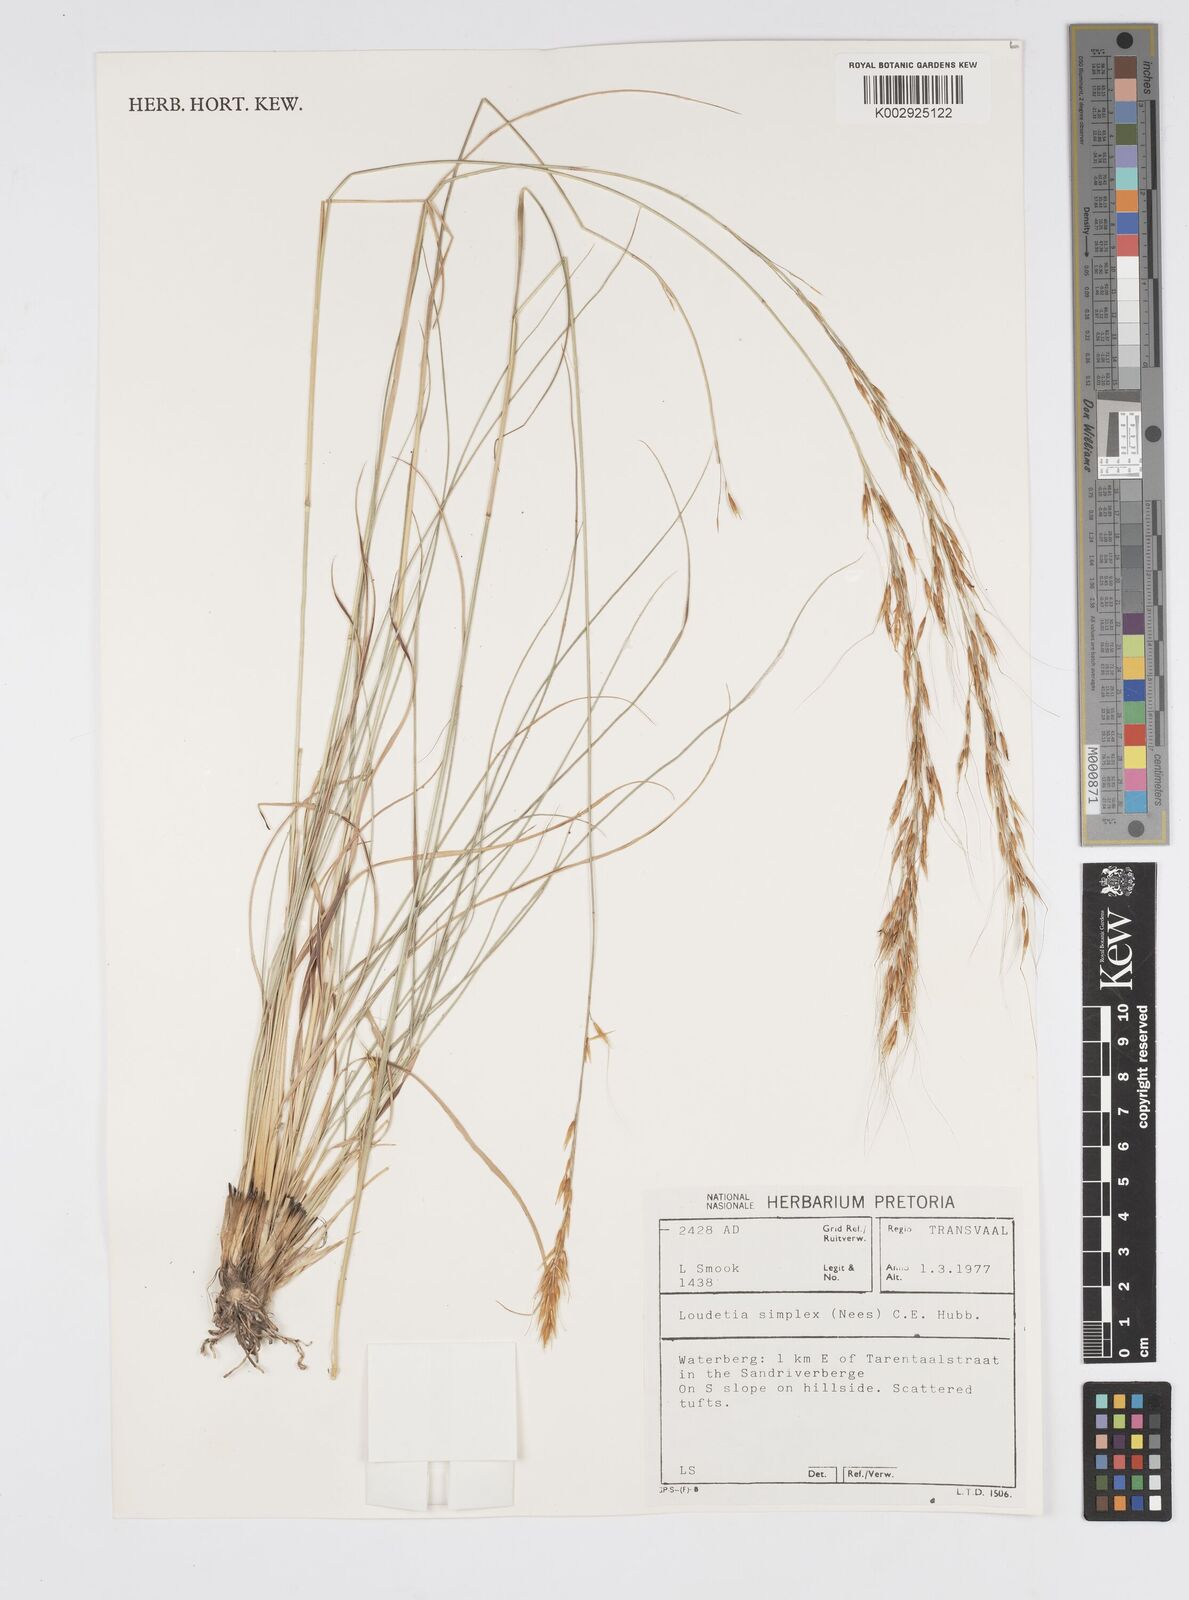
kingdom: Plantae
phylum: Tracheophyta
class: Liliopsida
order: Poales
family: Poaceae
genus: Loudetia
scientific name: Loudetia simplex
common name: Common russet grass
